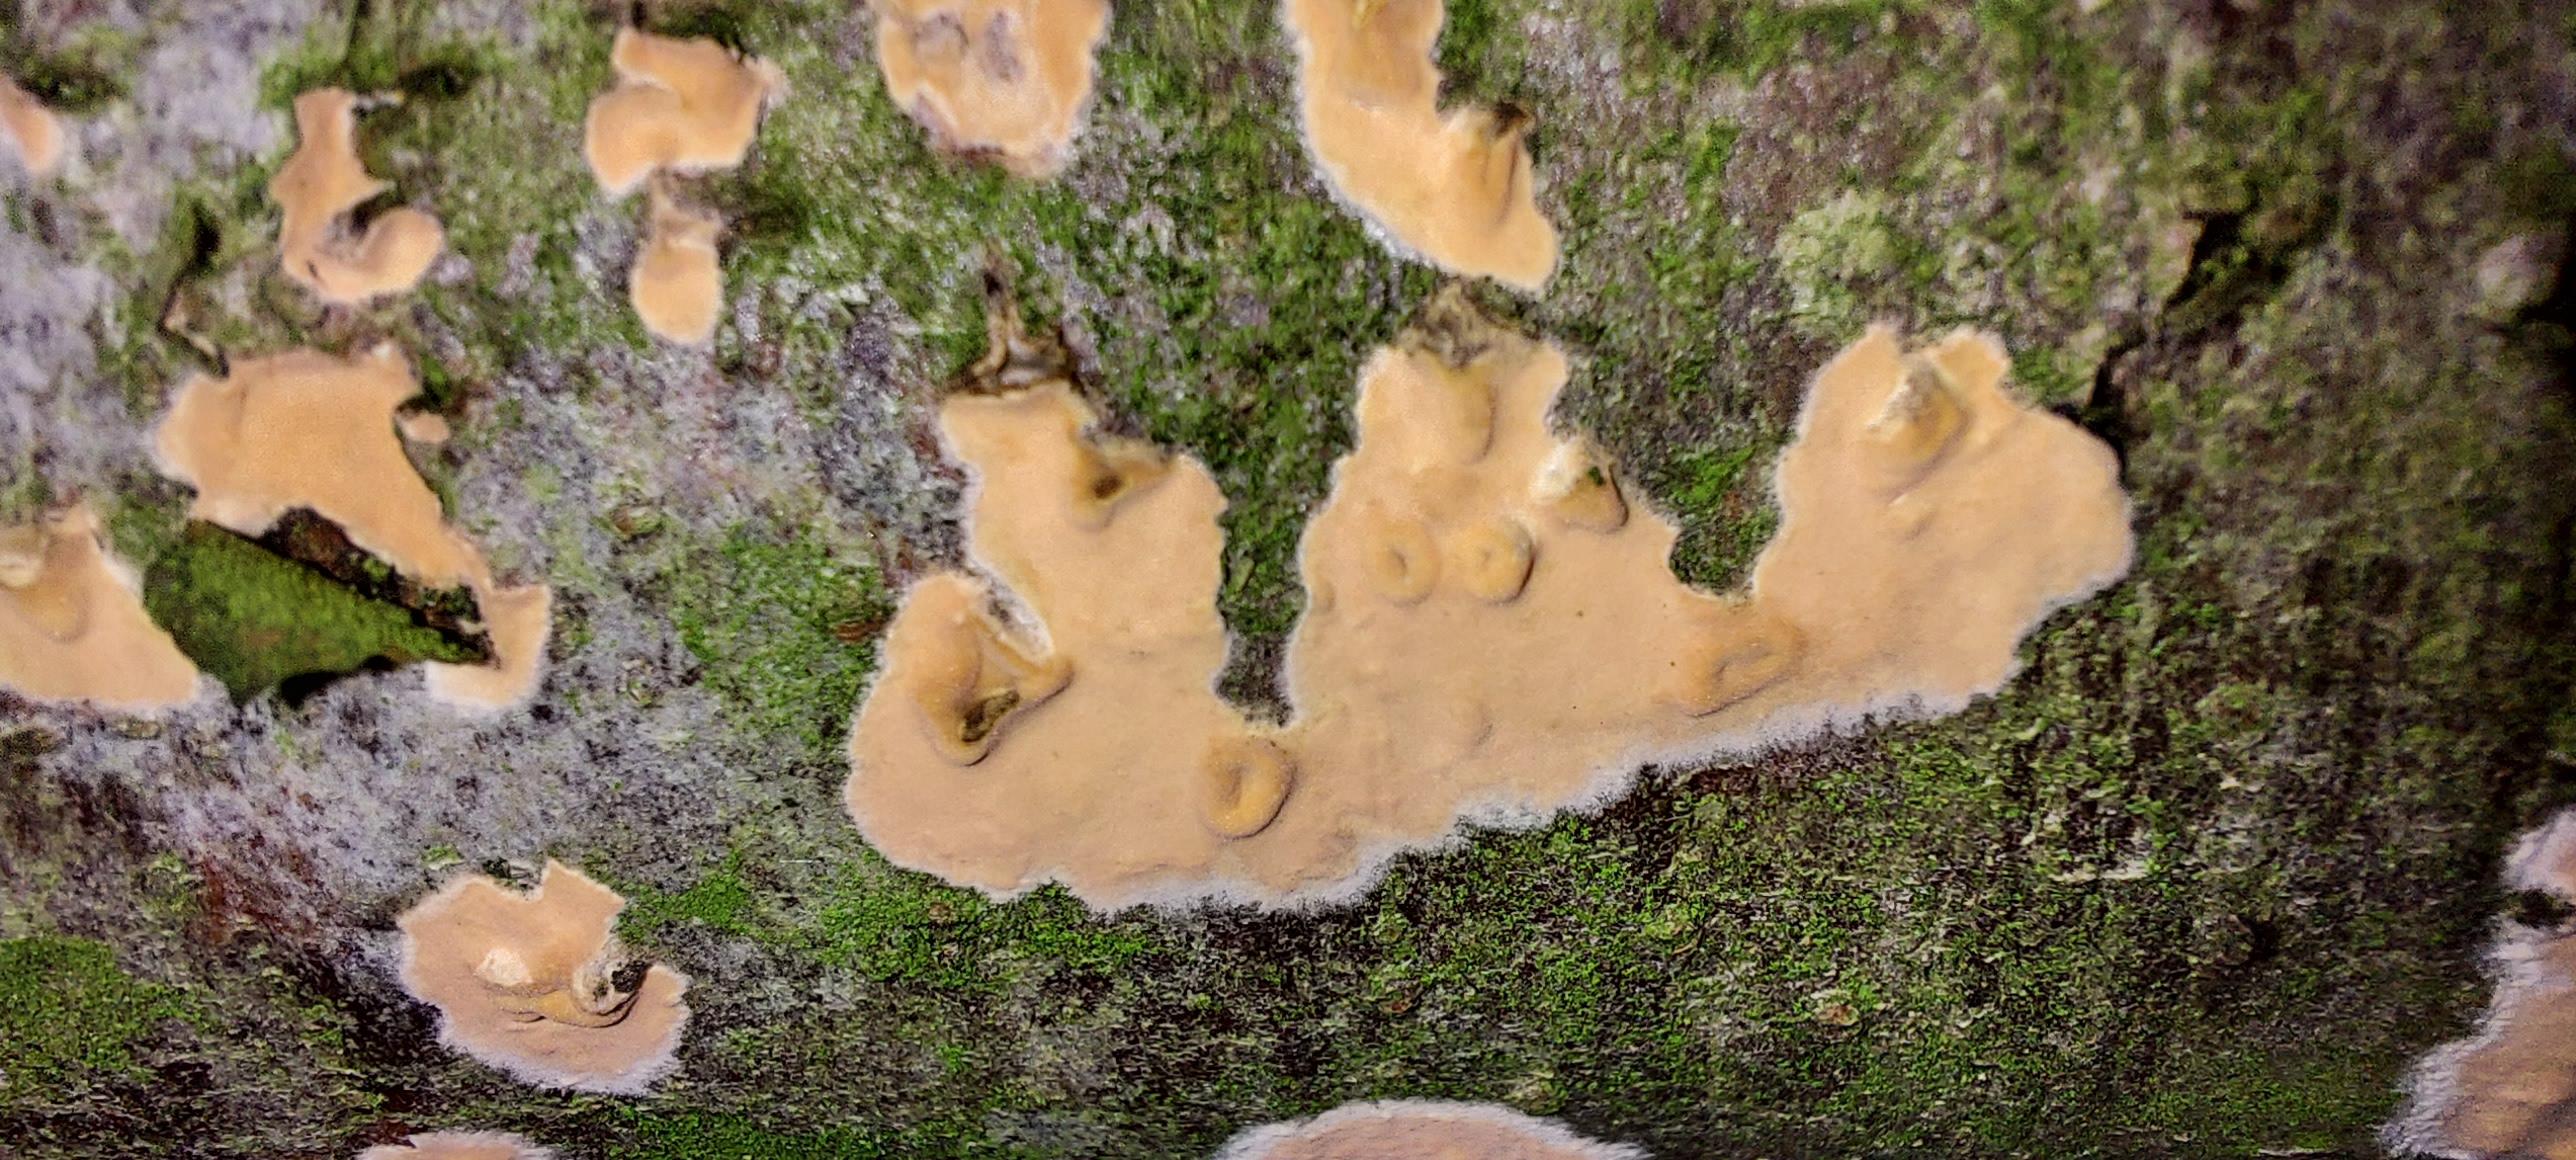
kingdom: Fungi
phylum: Basidiomycota
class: Agaricomycetes
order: Russulales
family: Peniophoraceae
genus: Peniophora
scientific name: Peniophora incarnata
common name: laksefarvet voksskind
